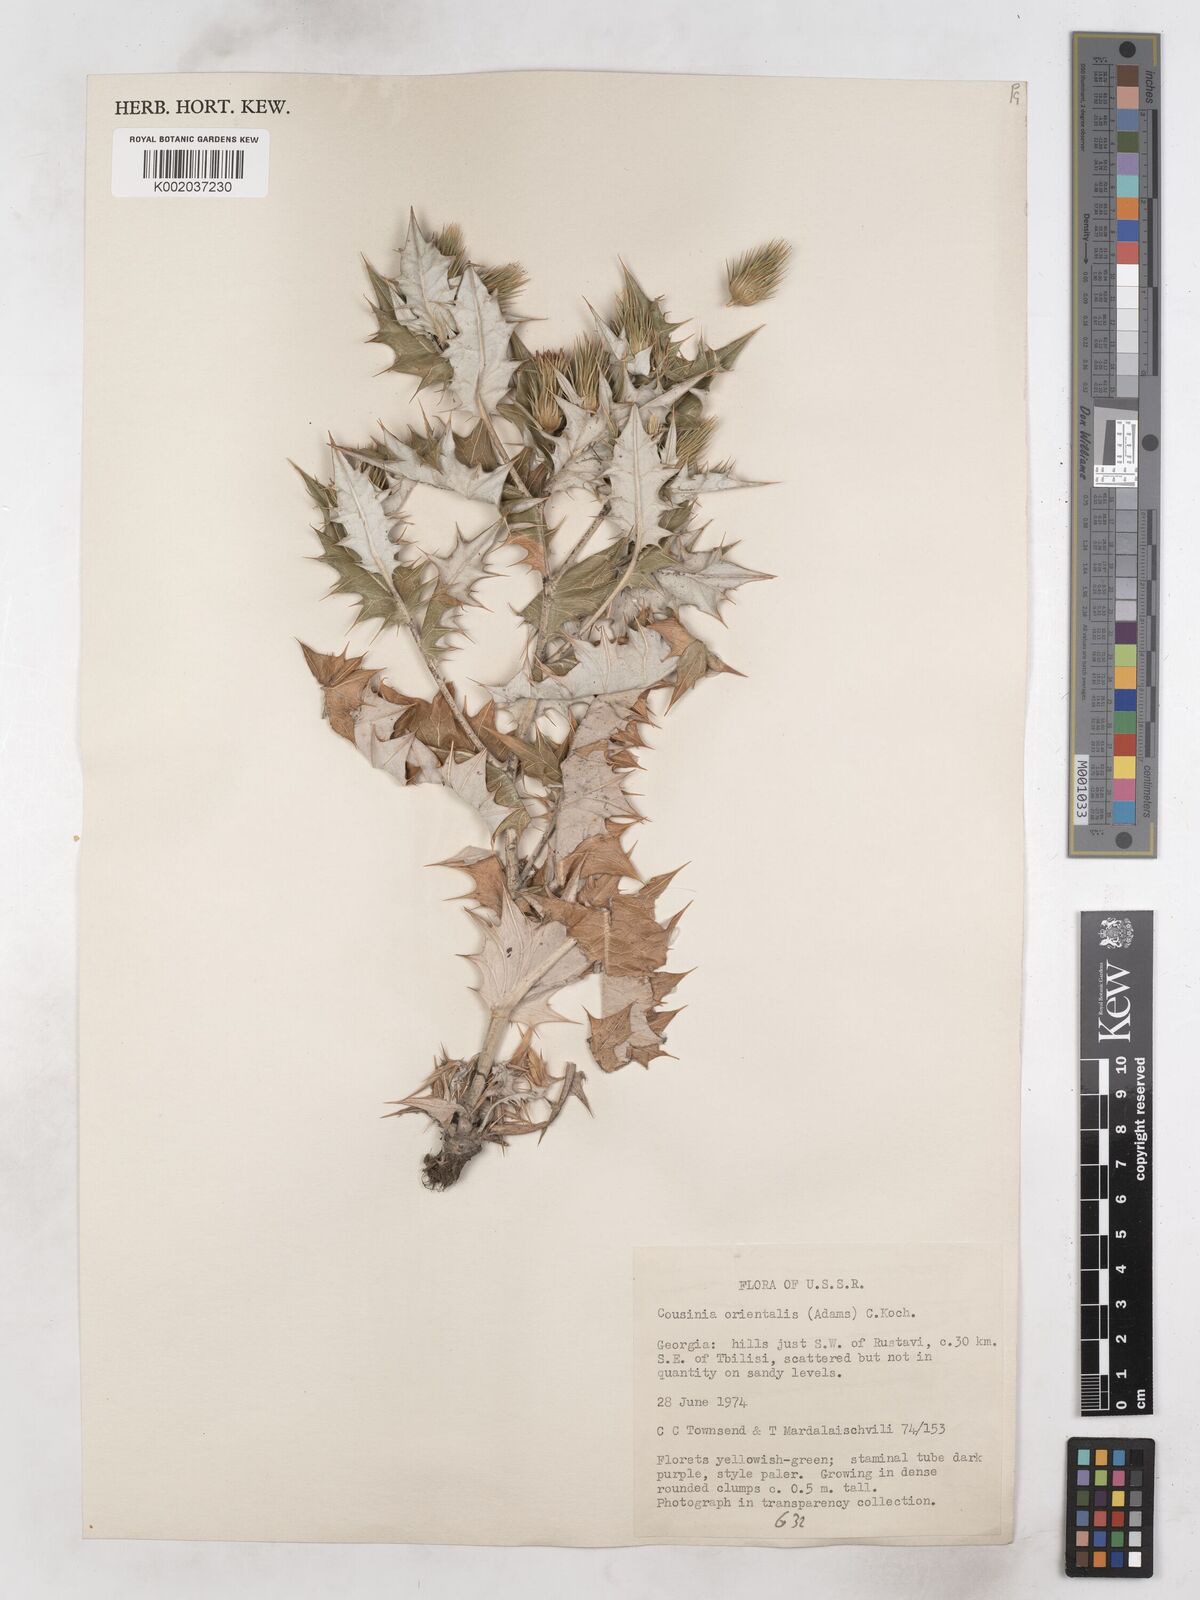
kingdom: Plantae
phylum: Tracheophyta
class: Magnoliopsida
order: Asterales
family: Asteraceae
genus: Cousinia
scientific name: Cousinia
